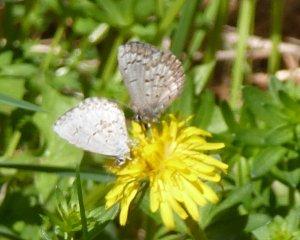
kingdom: Animalia
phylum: Arthropoda
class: Insecta
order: Lepidoptera
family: Lycaenidae
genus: Celastrina
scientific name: Celastrina lucia
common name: Northern Spring Azure
